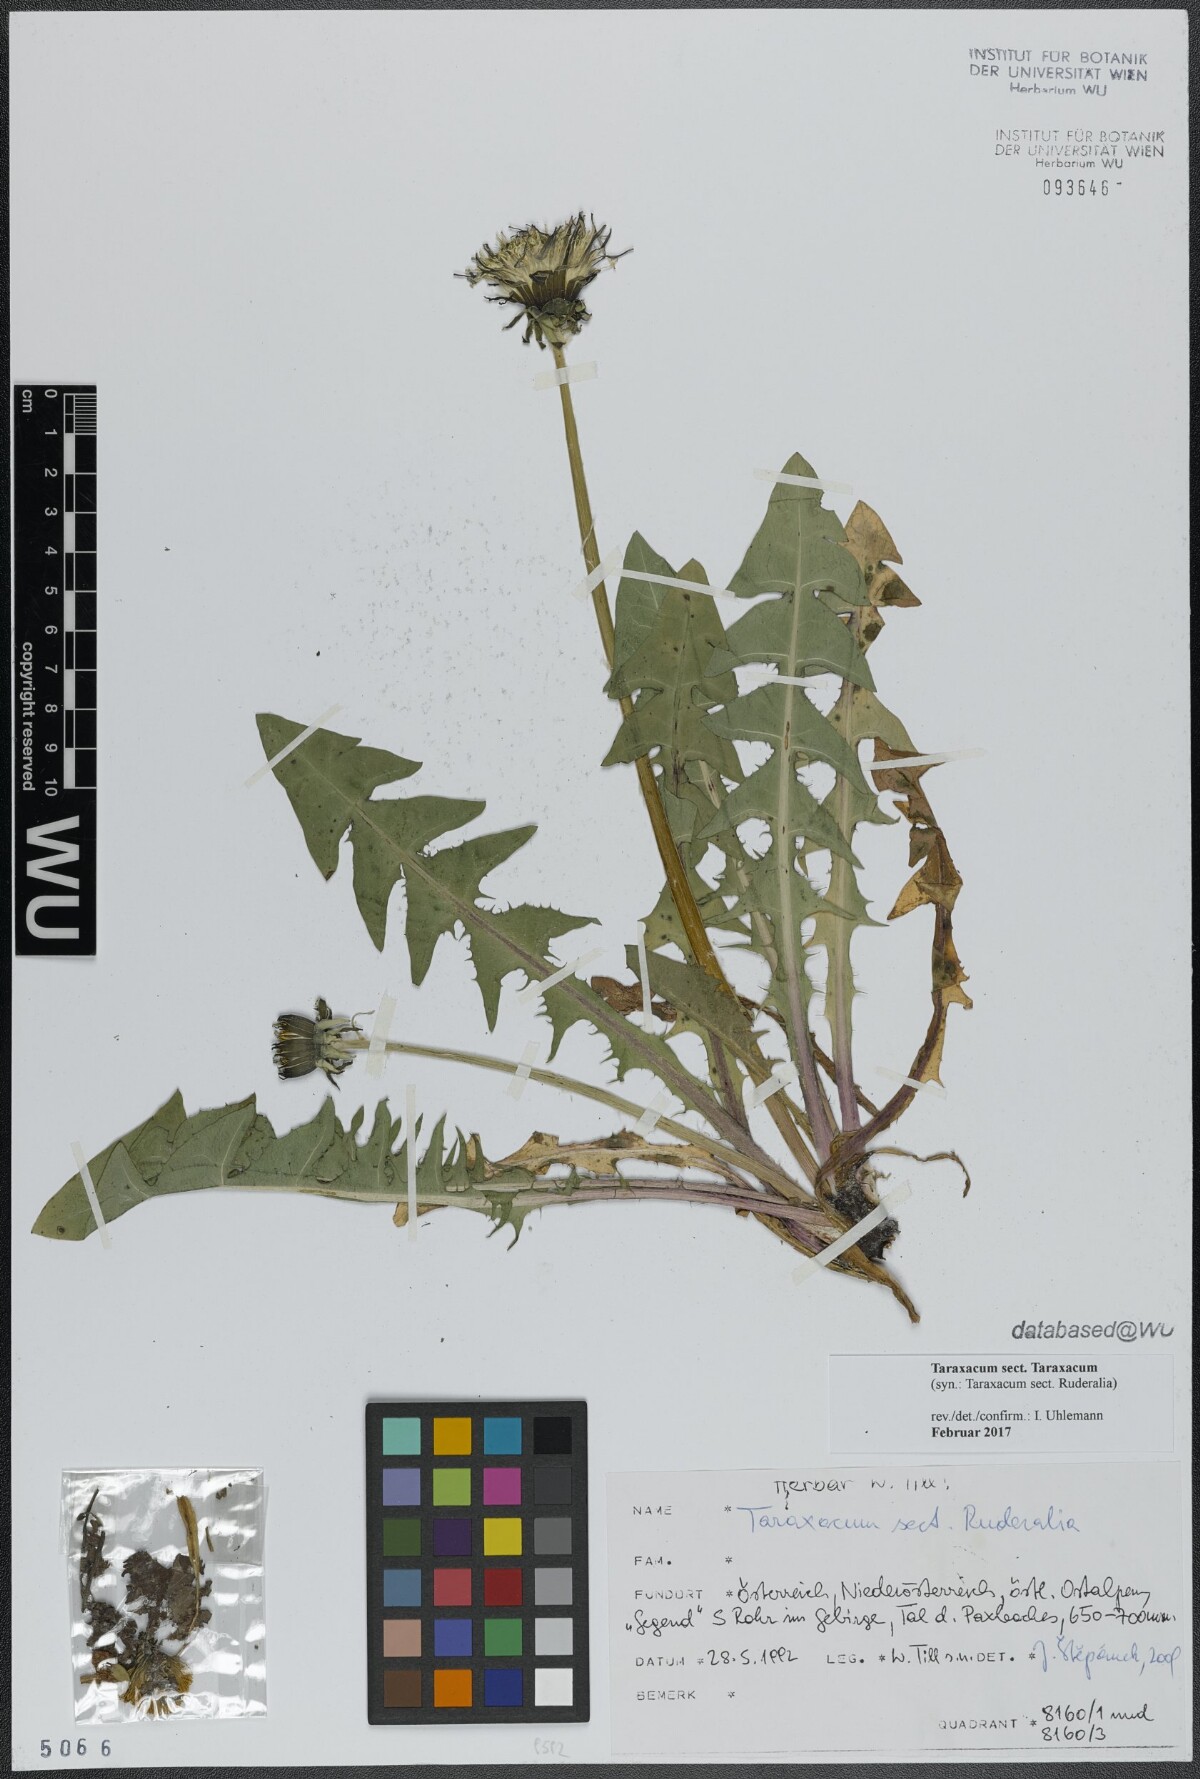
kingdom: Plantae
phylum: Tracheophyta
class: Magnoliopsida
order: Asterales
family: Asteraceae
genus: Taraxacum
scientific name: Taraxacum
